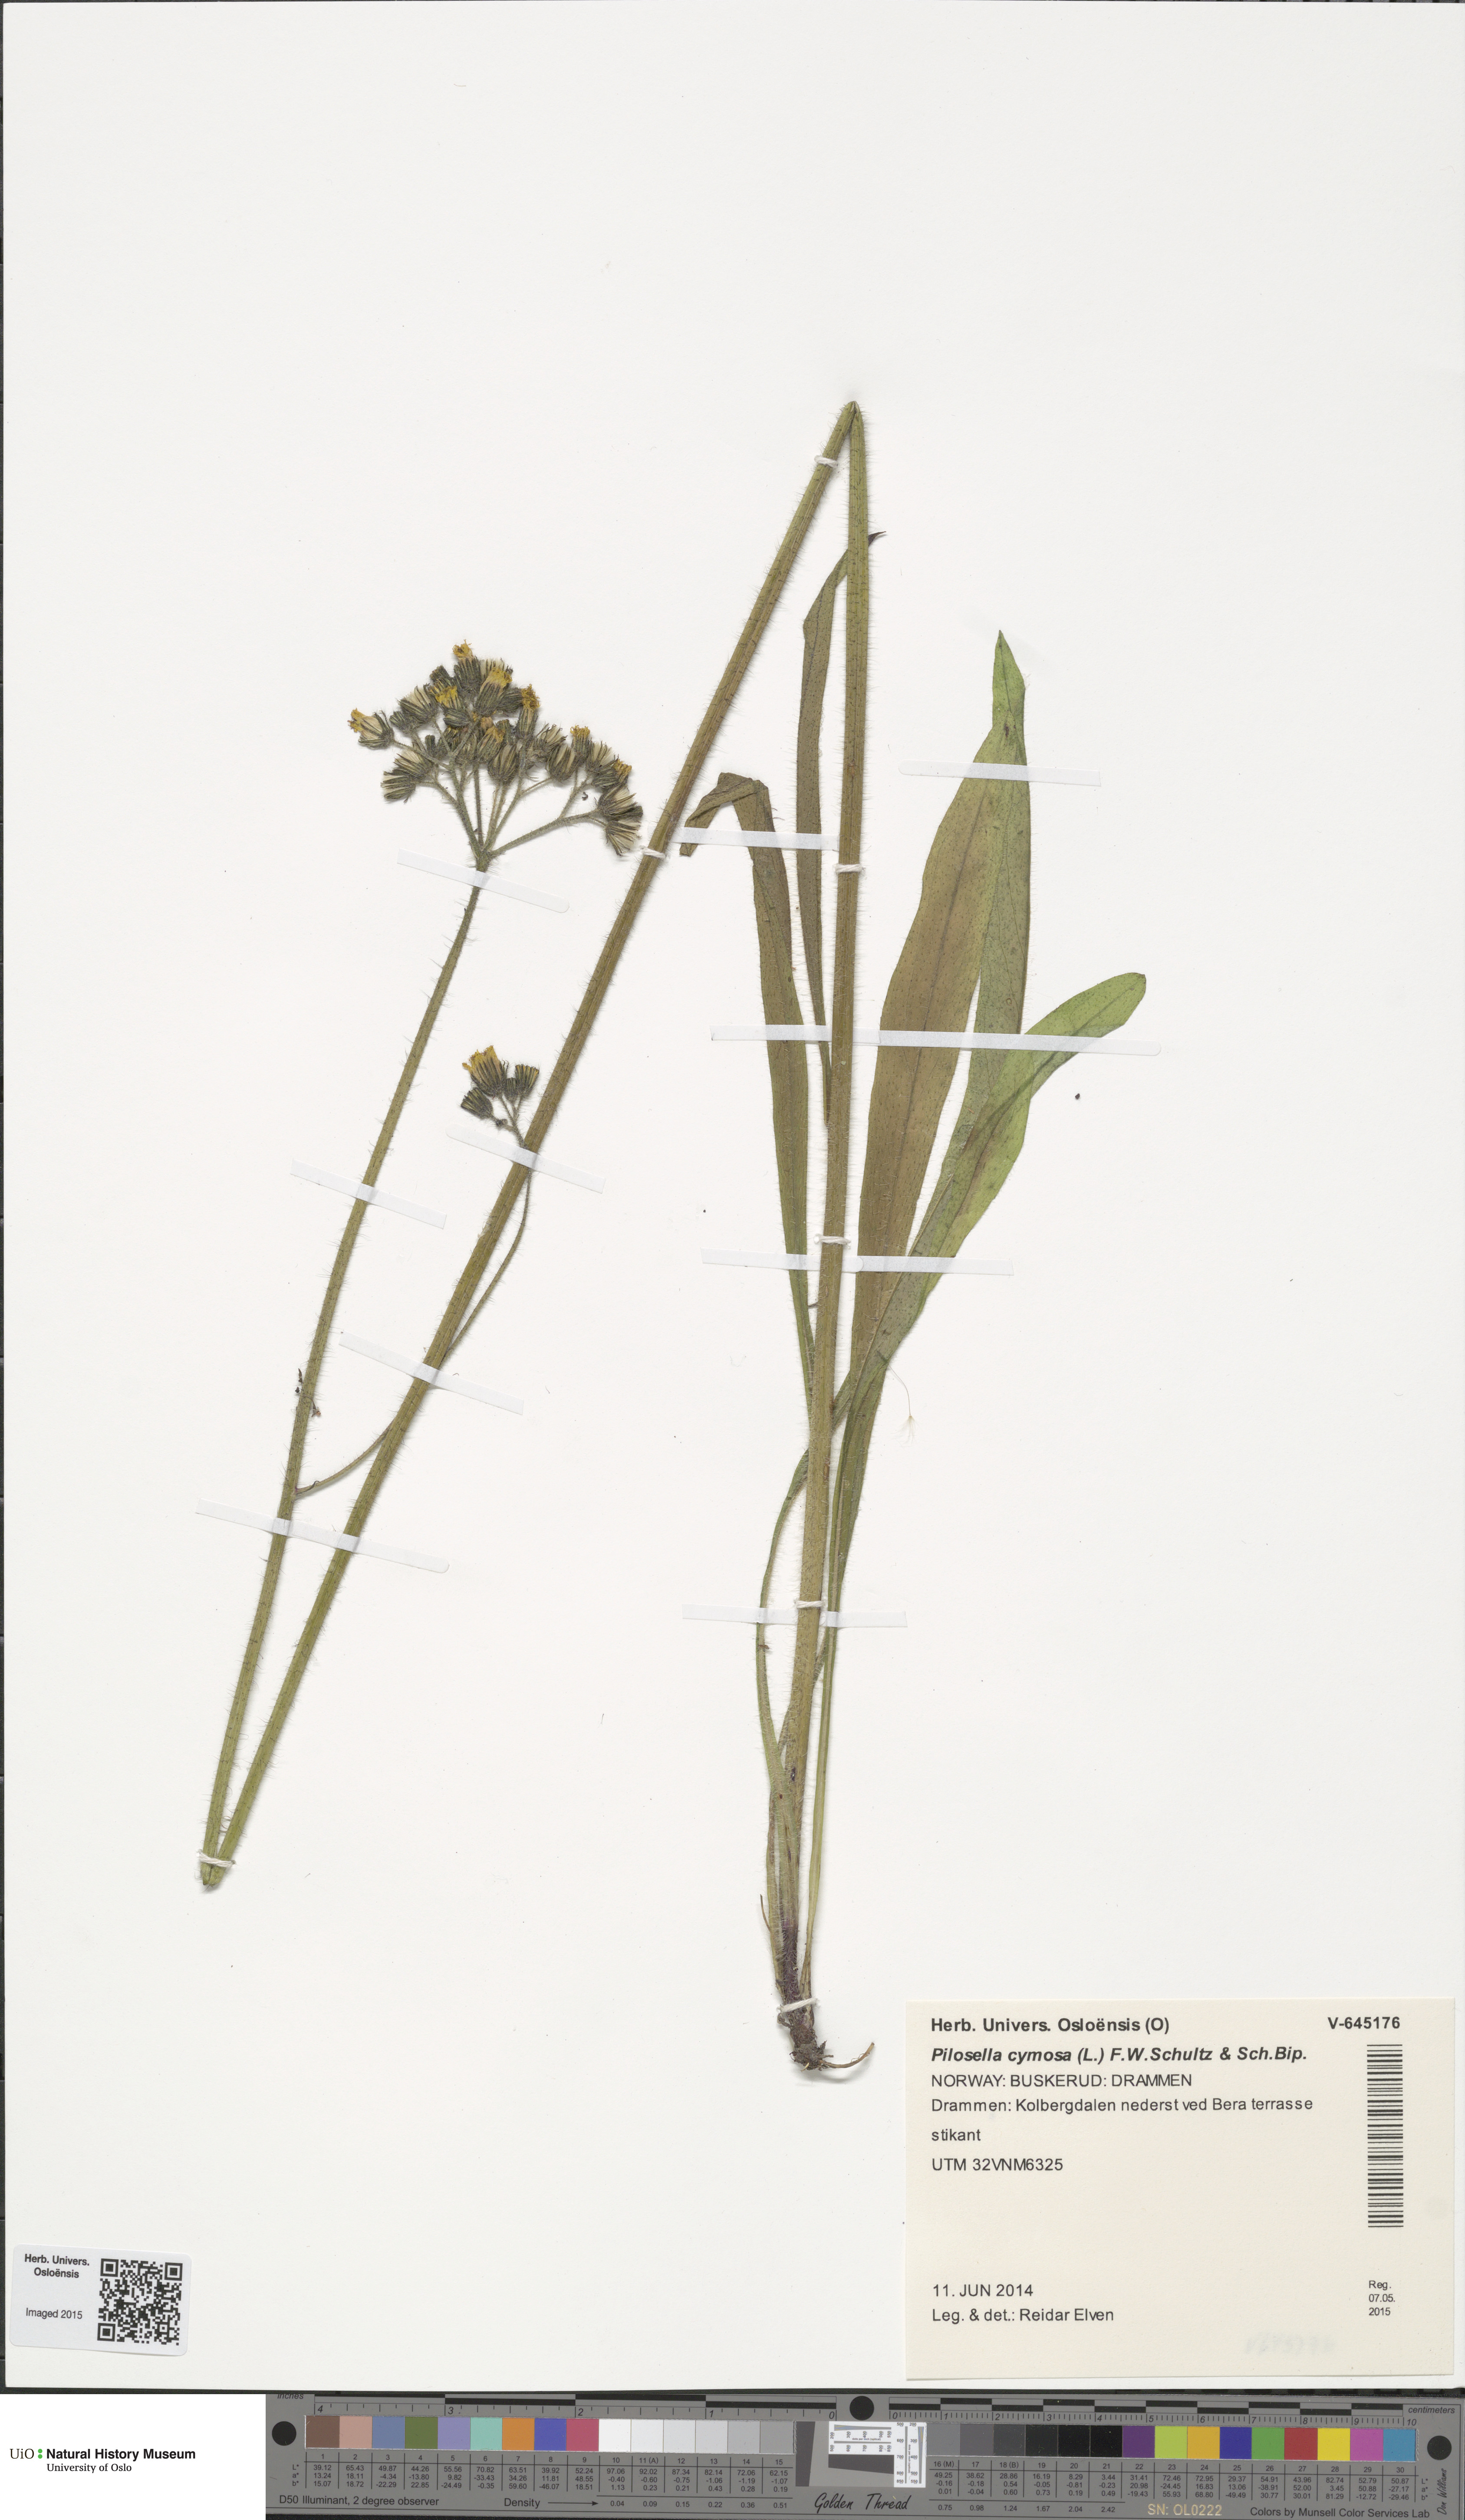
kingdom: Plantae
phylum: Tracheophyta
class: Magnoliopsida
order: Asterales
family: Asteraceae
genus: Pilosella
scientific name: Pilosella cymosa
